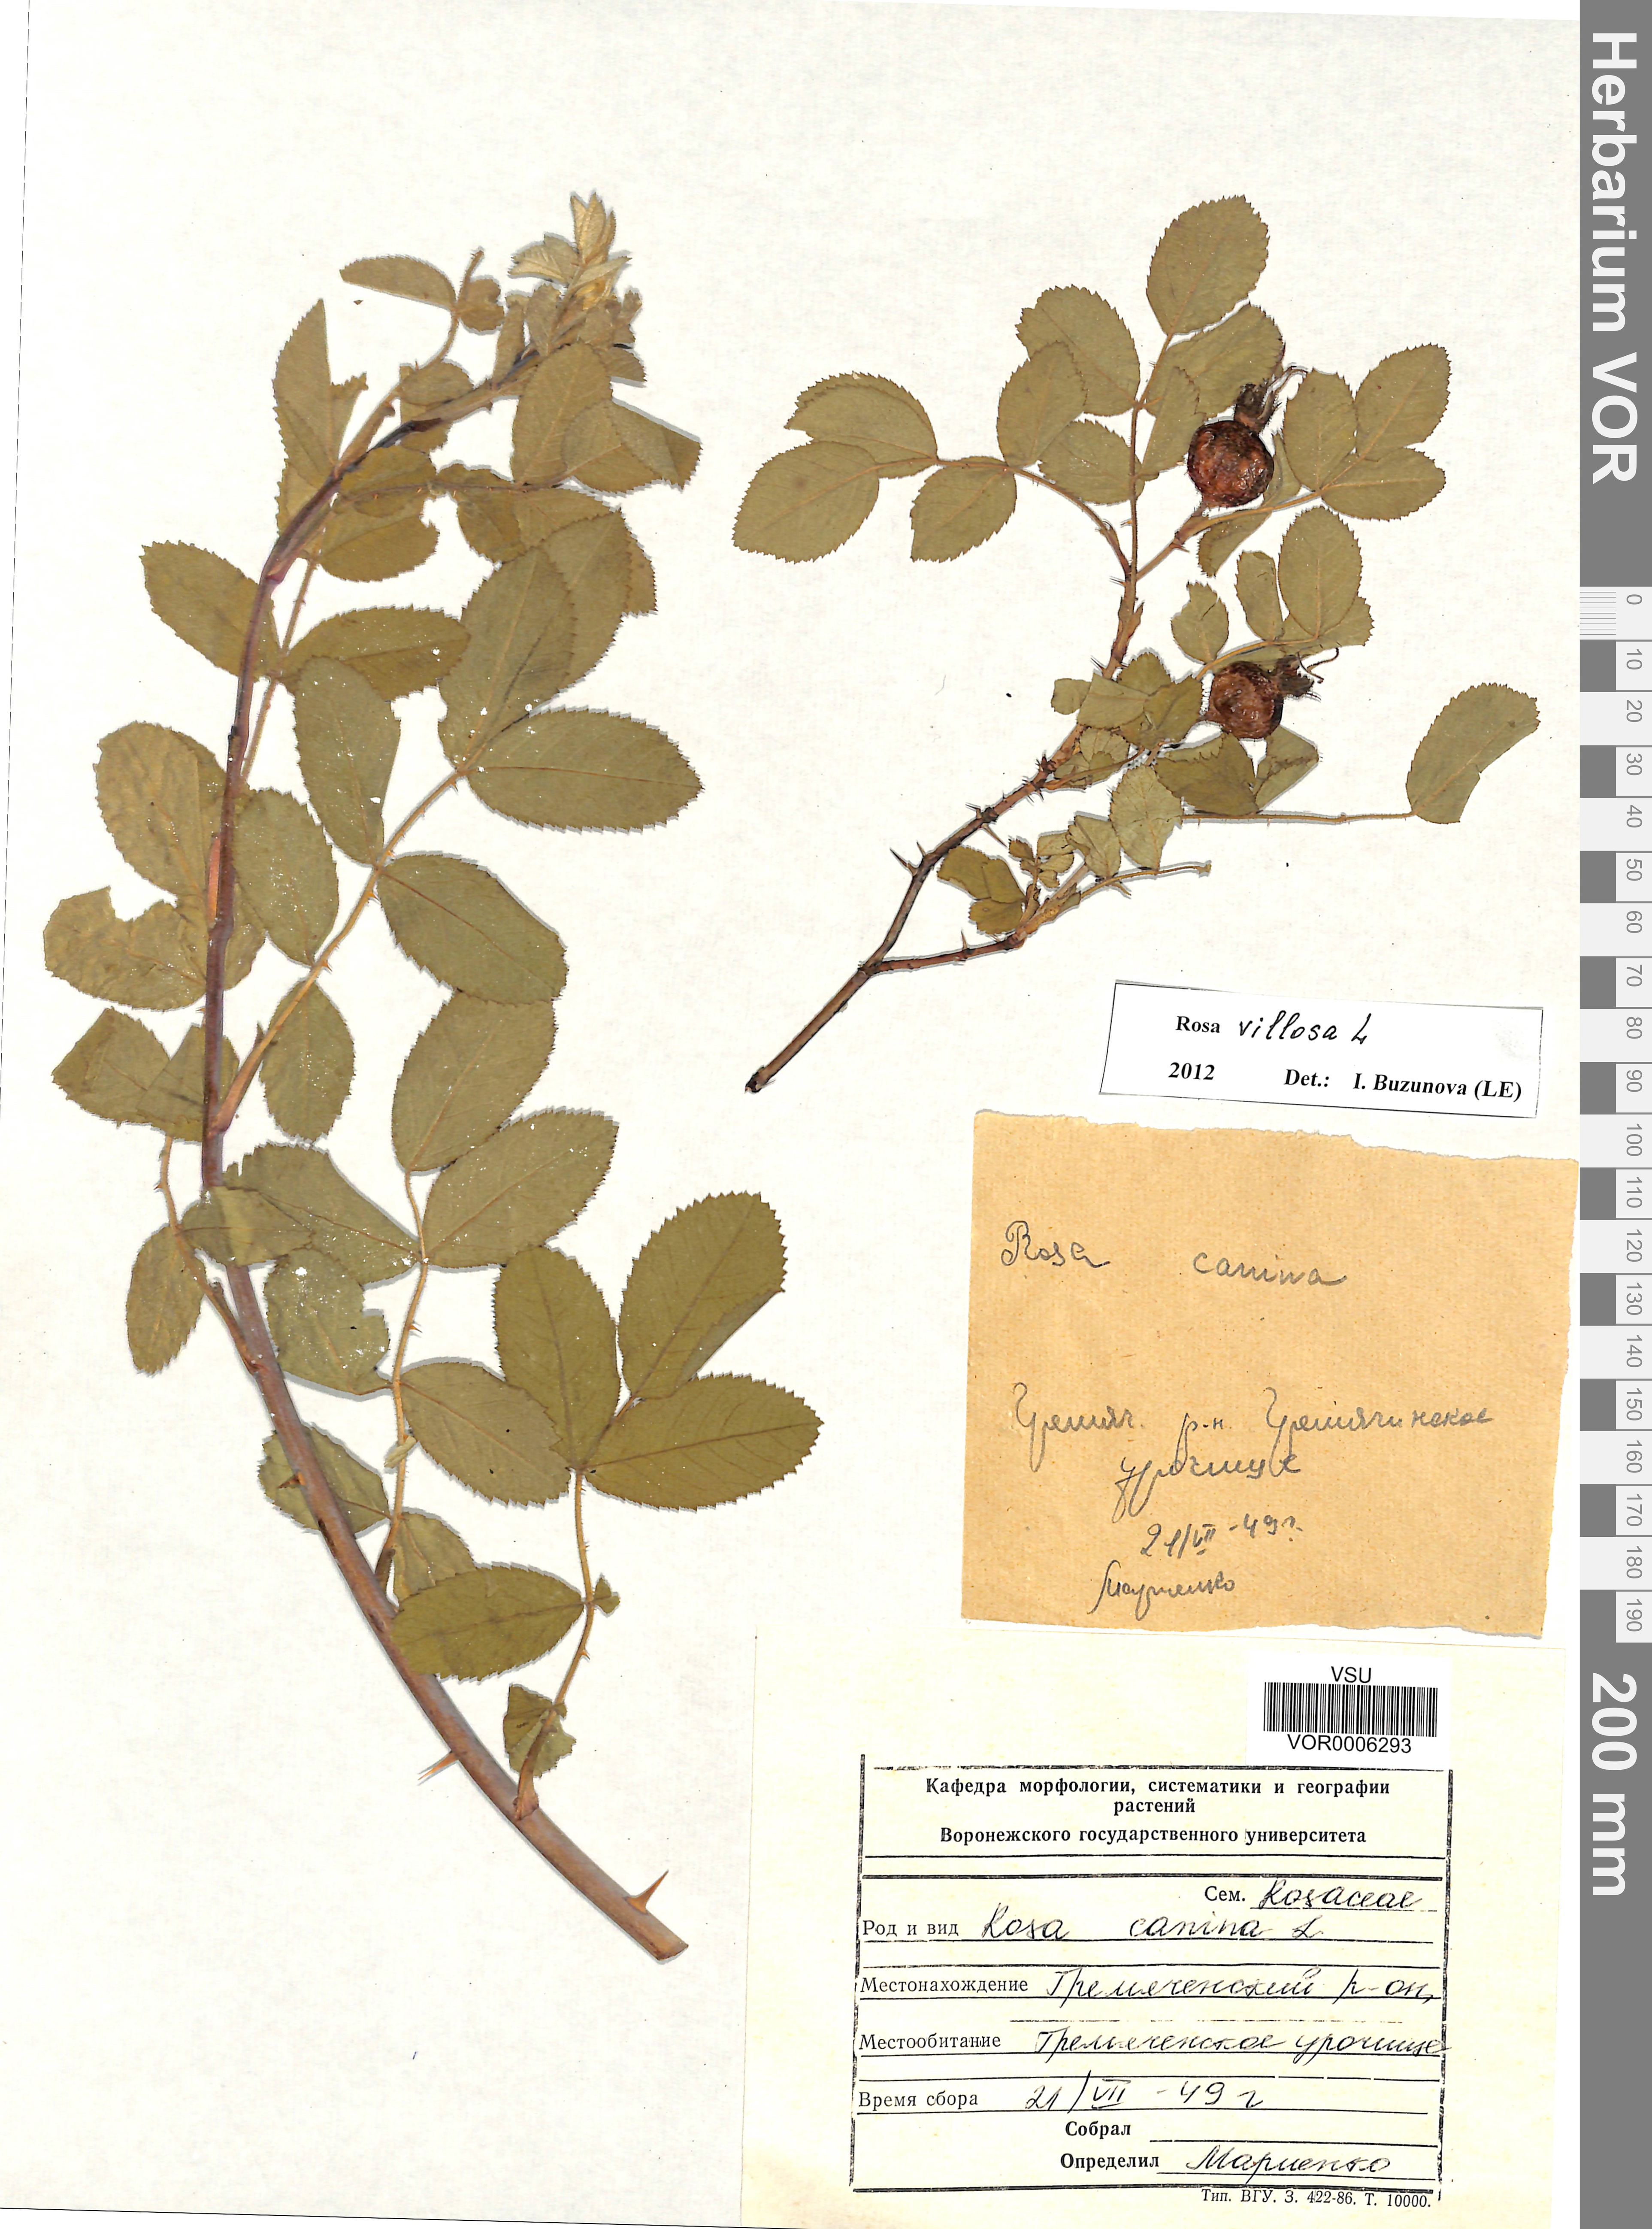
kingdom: Plantae
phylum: Tracheophyta
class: Magnoliopsida
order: Rosales
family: Rosaceae
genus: Rosa
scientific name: Rosa villosa
